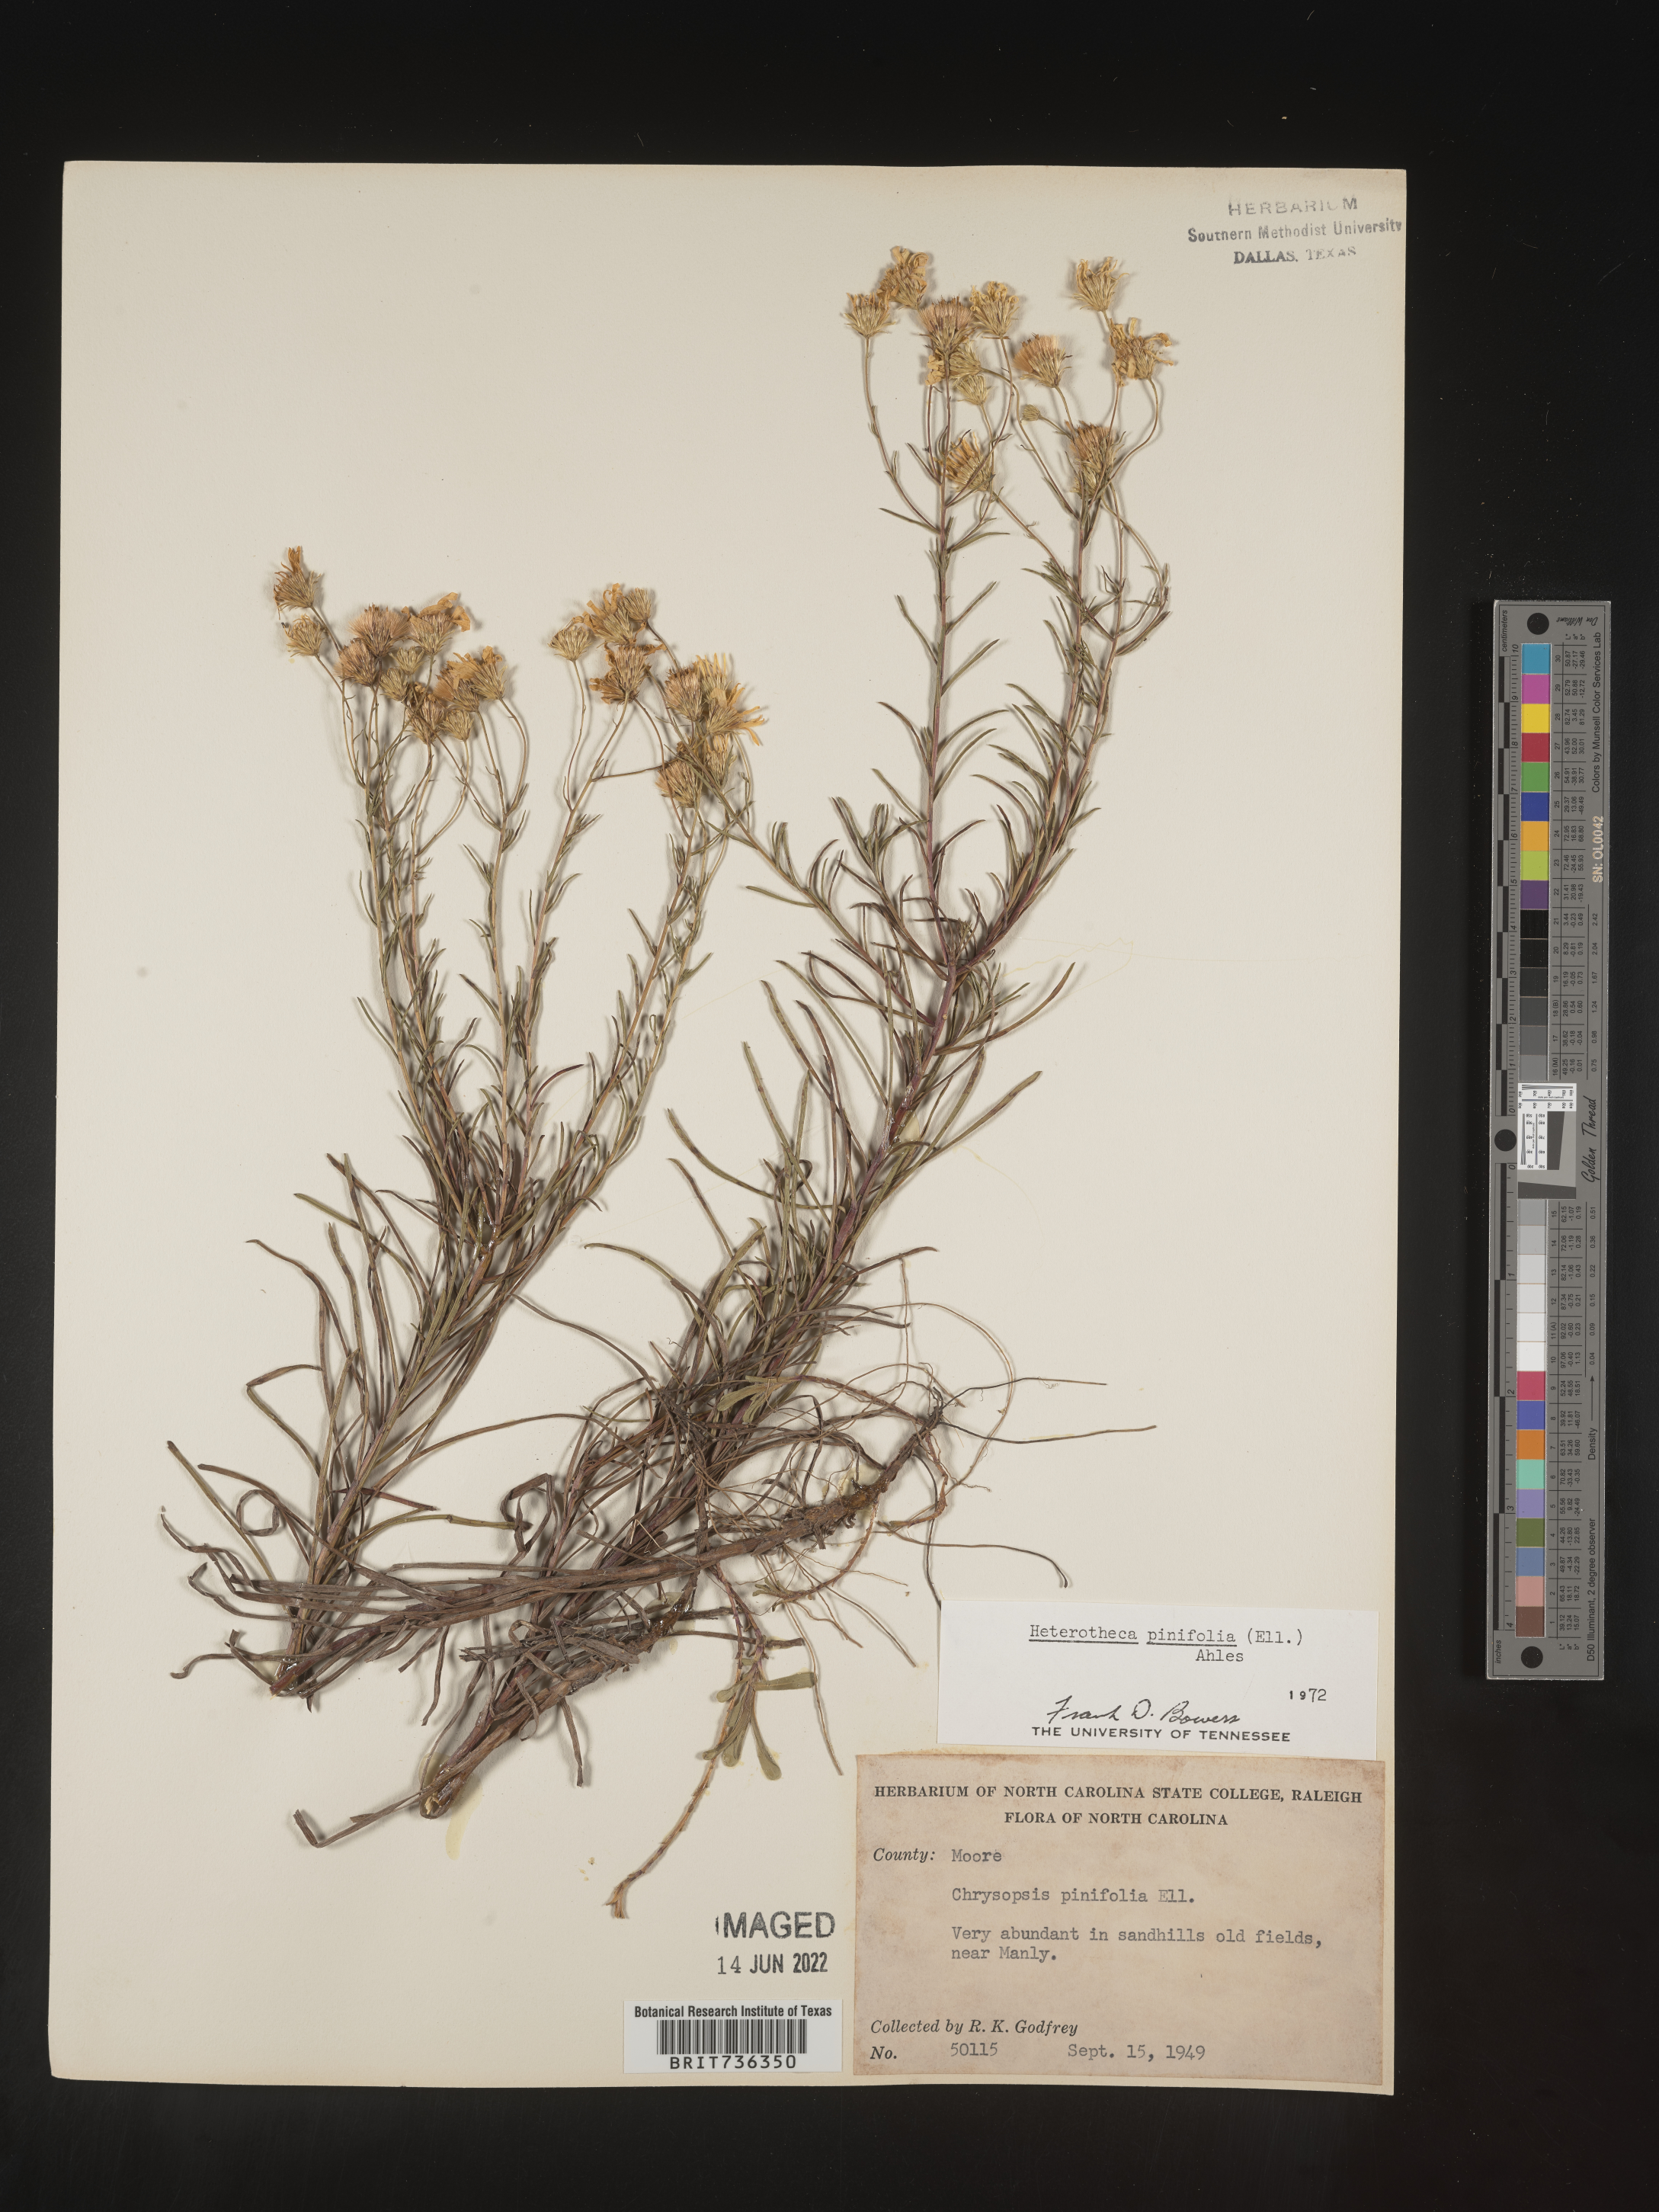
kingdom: Plantae
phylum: Tracheophyta
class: Magnoliopsida
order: Asterales
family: Asteraceae
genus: Pityopsis
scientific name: Pityopsis pinifolia
